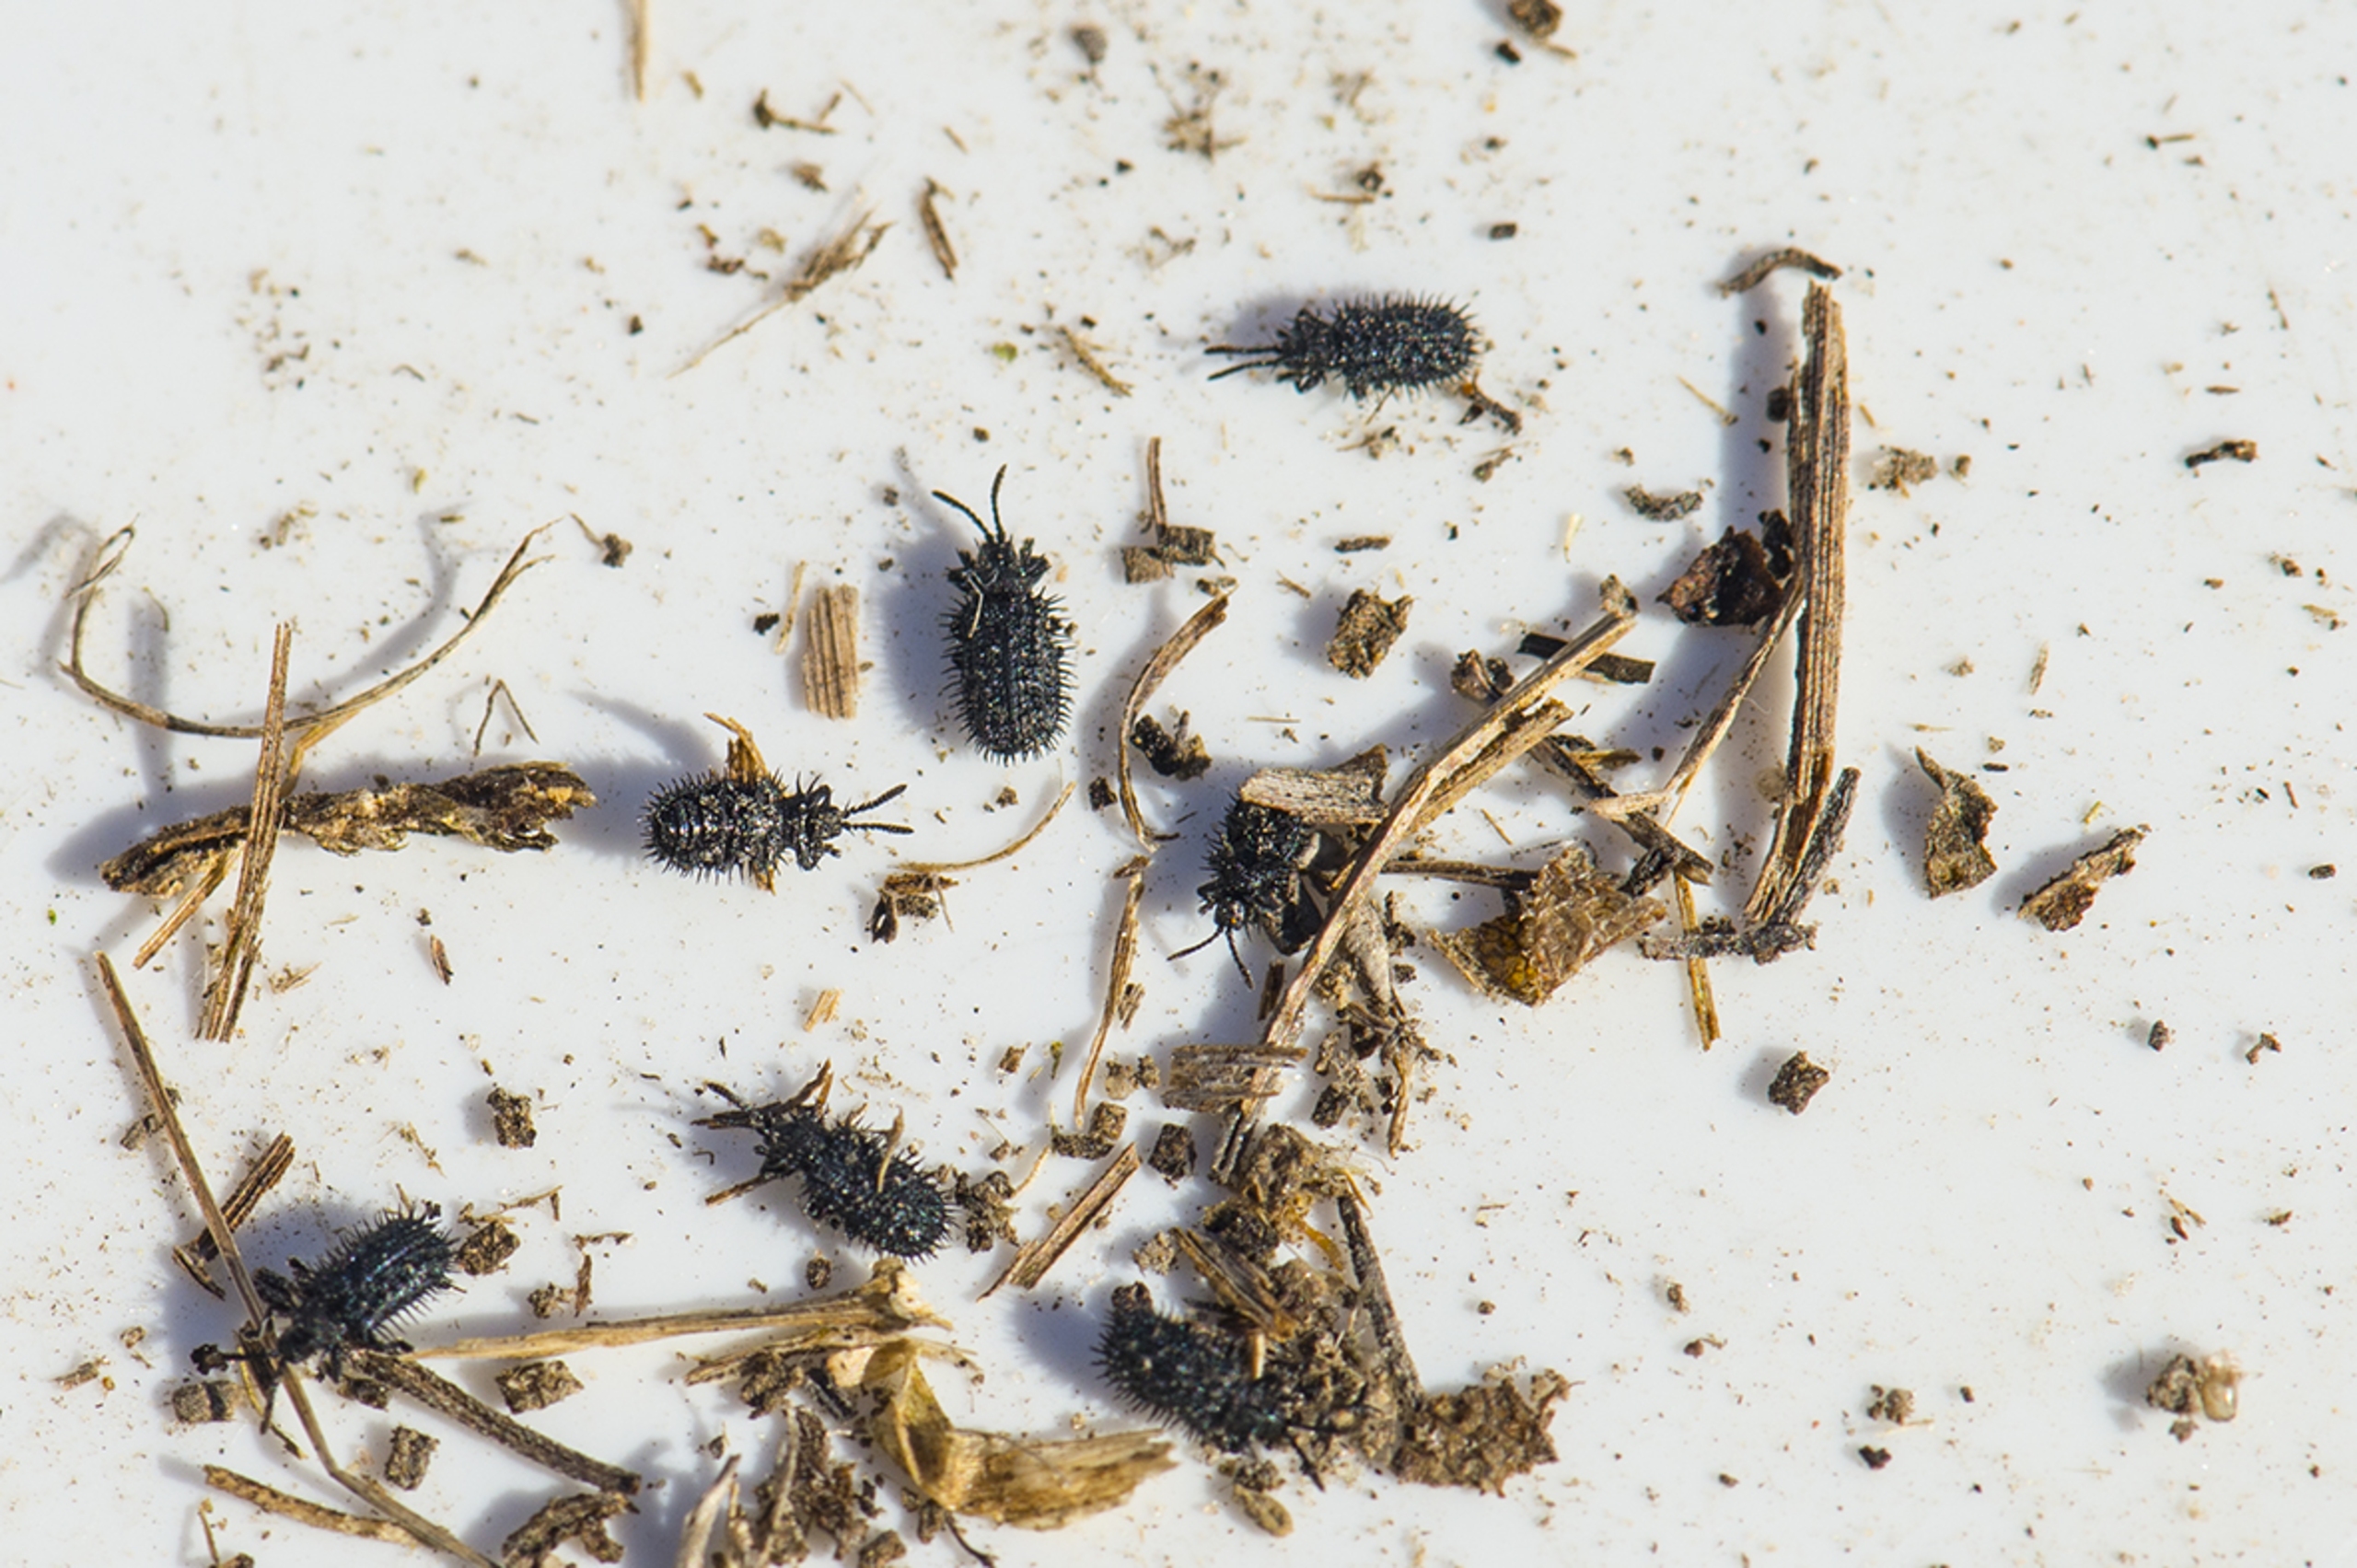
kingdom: Animalia
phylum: Arthropoda
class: Insecta
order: Coleoptera
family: Chrysomelidae
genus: Hispa
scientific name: Hispa atra
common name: Pindsvinebille
